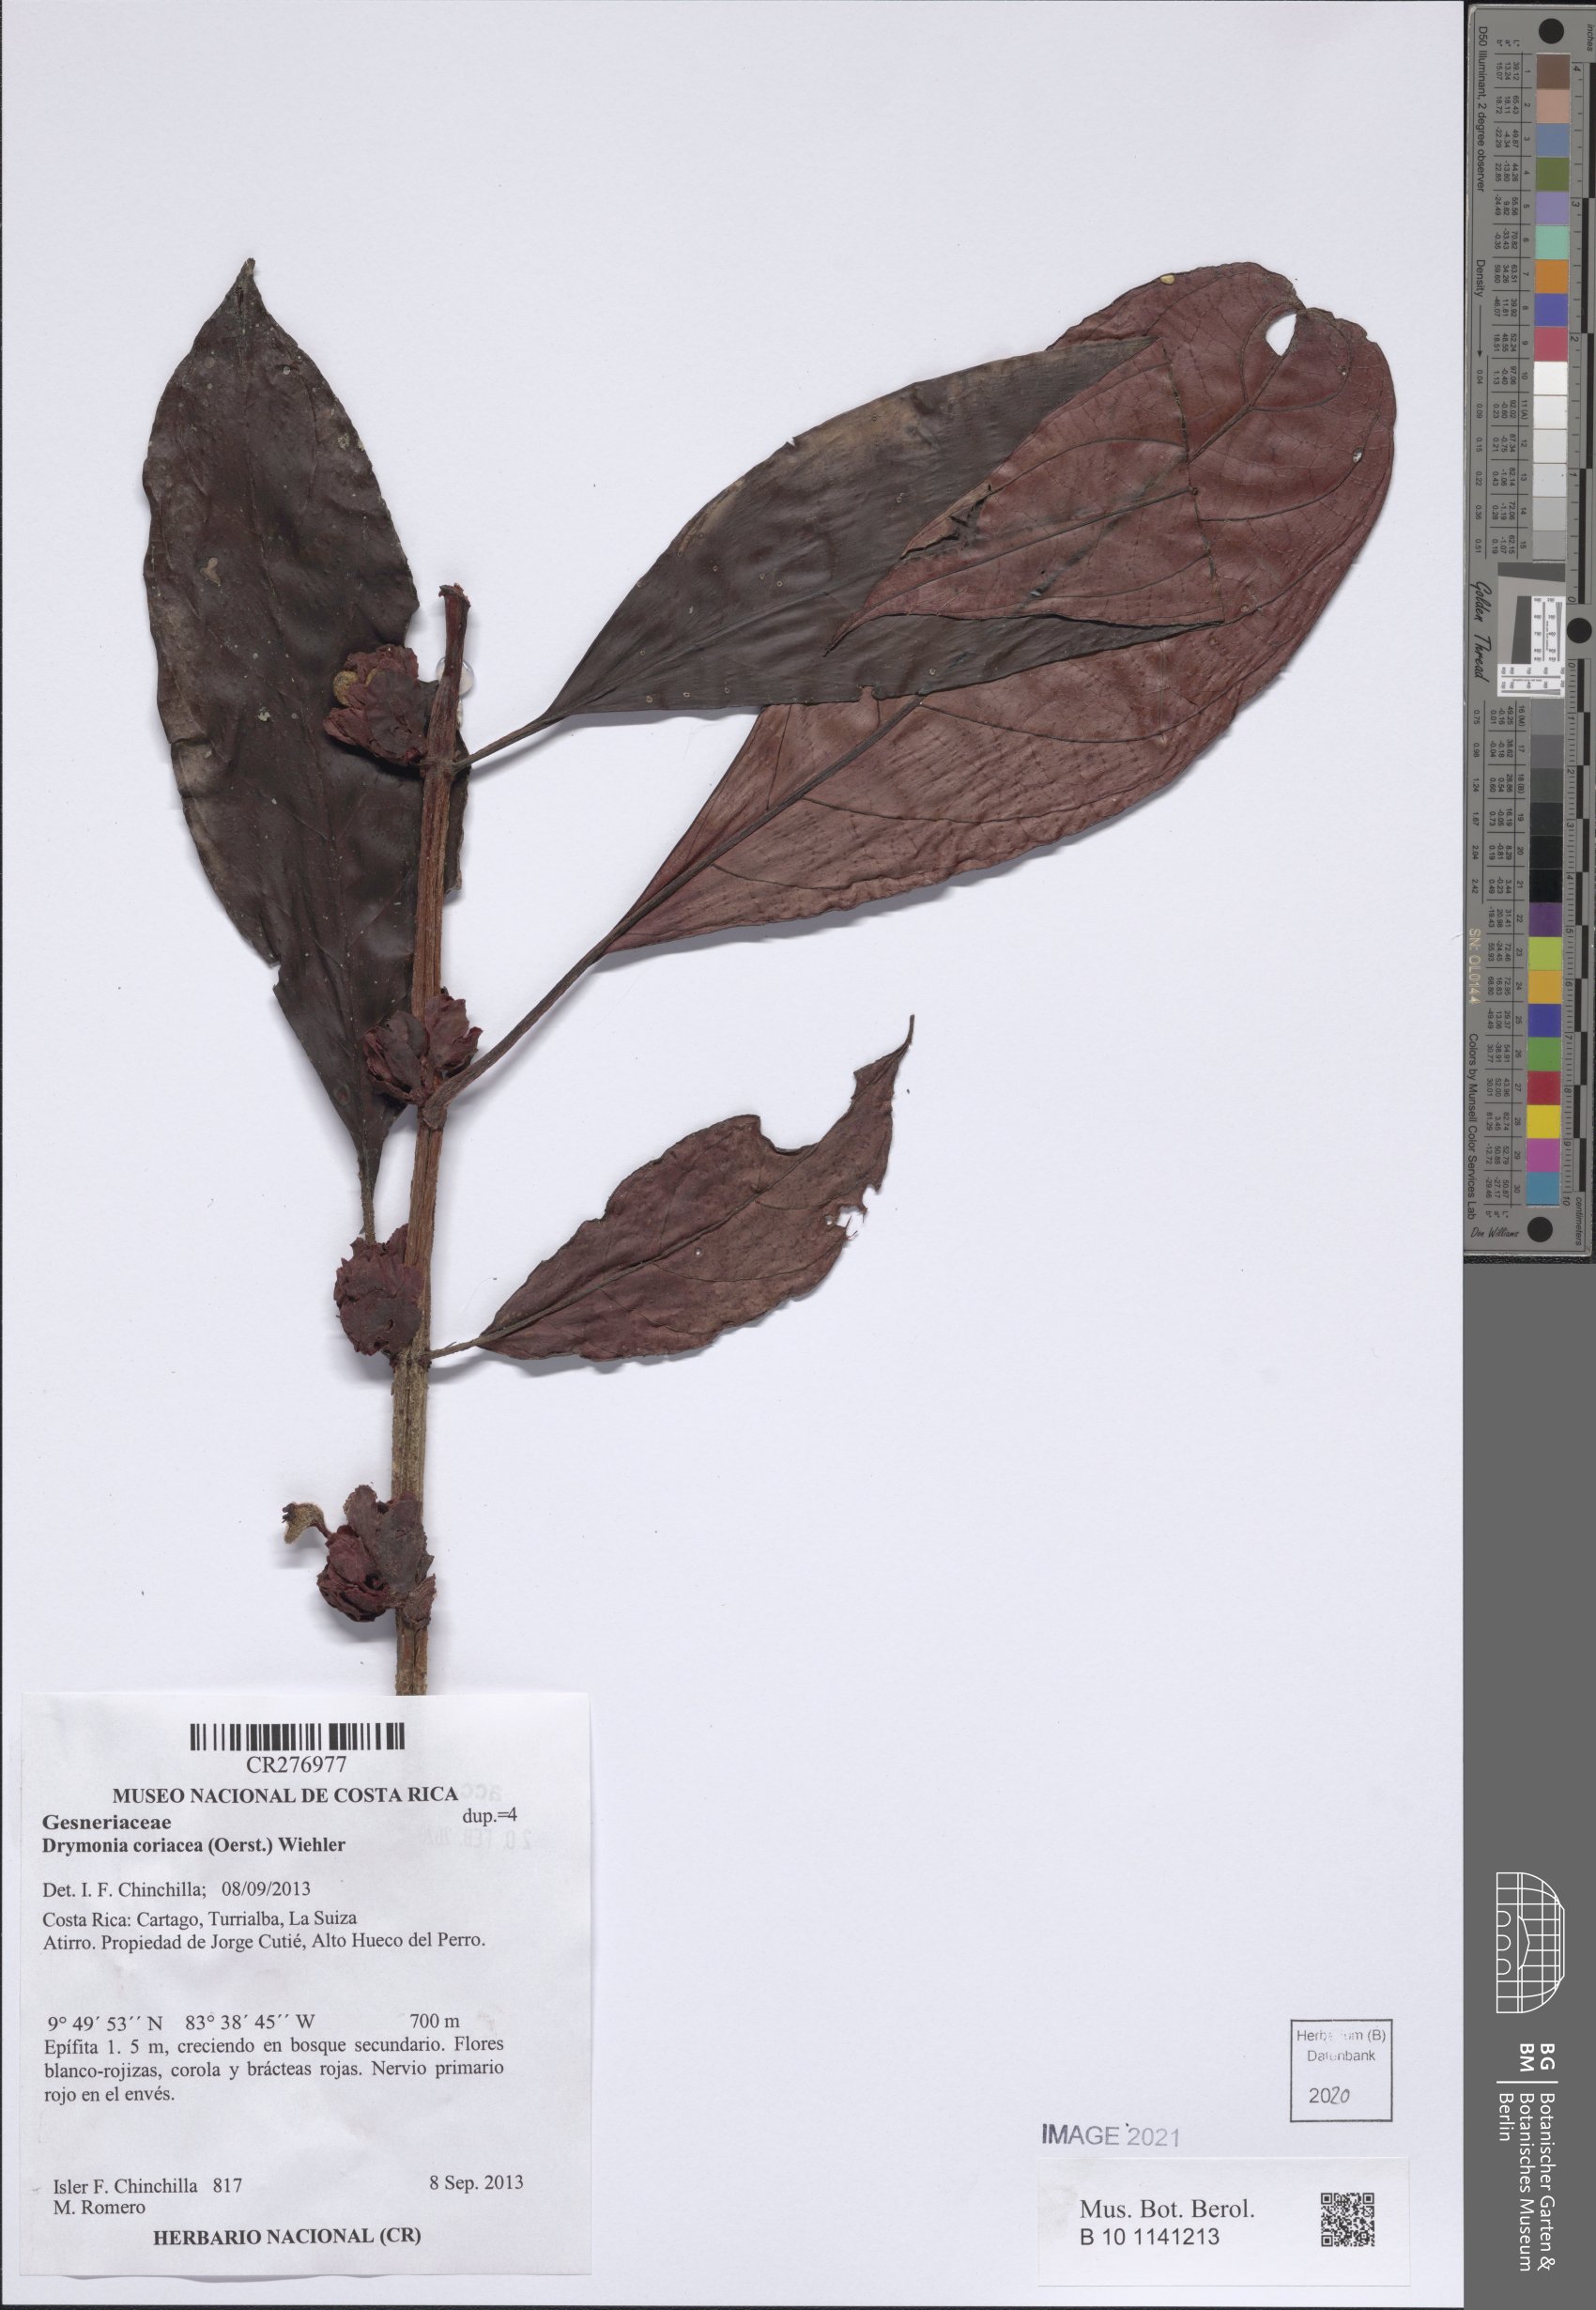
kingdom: Plantae
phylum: Tracheophyta
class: Magnoliopsida
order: Lamiales
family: Gesneriaceae
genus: Drymonia
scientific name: Drymonia coriacea
